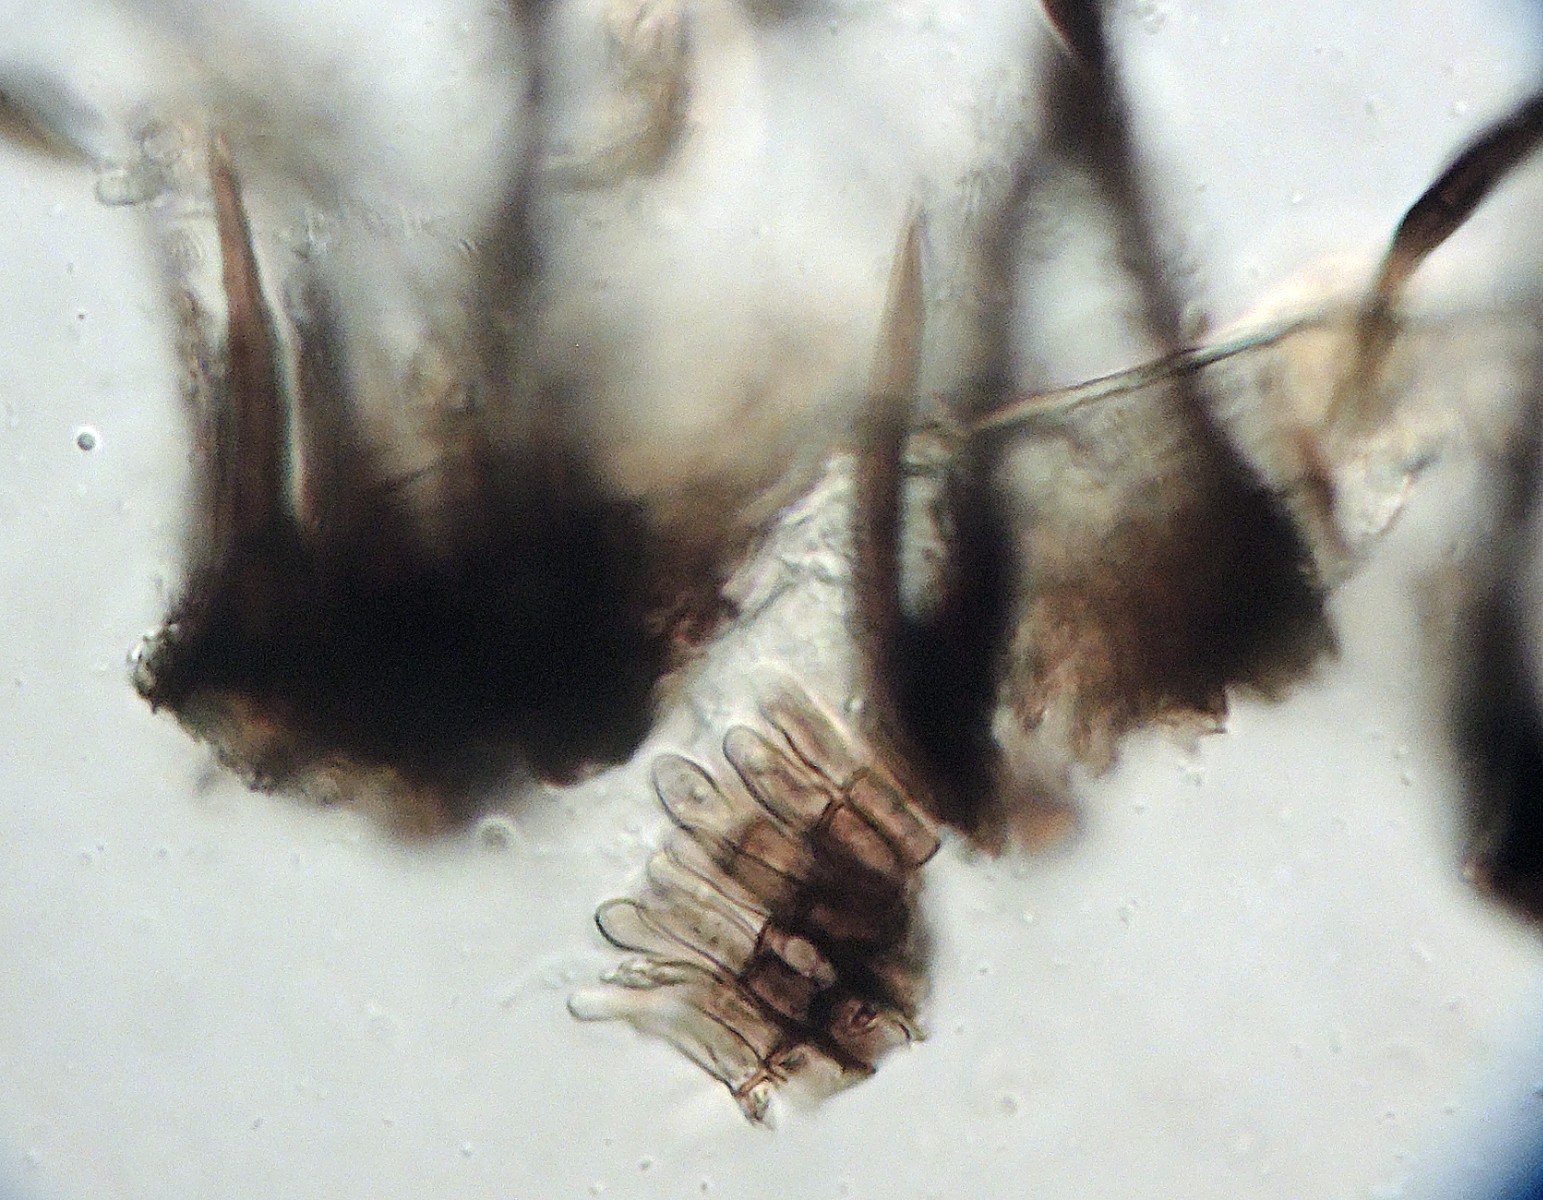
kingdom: Fungi
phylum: Ascomycota
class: Sordariomycetes
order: Glomerellales
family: Glomerellaceae
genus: Colletotrichum
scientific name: Colletotrichum
